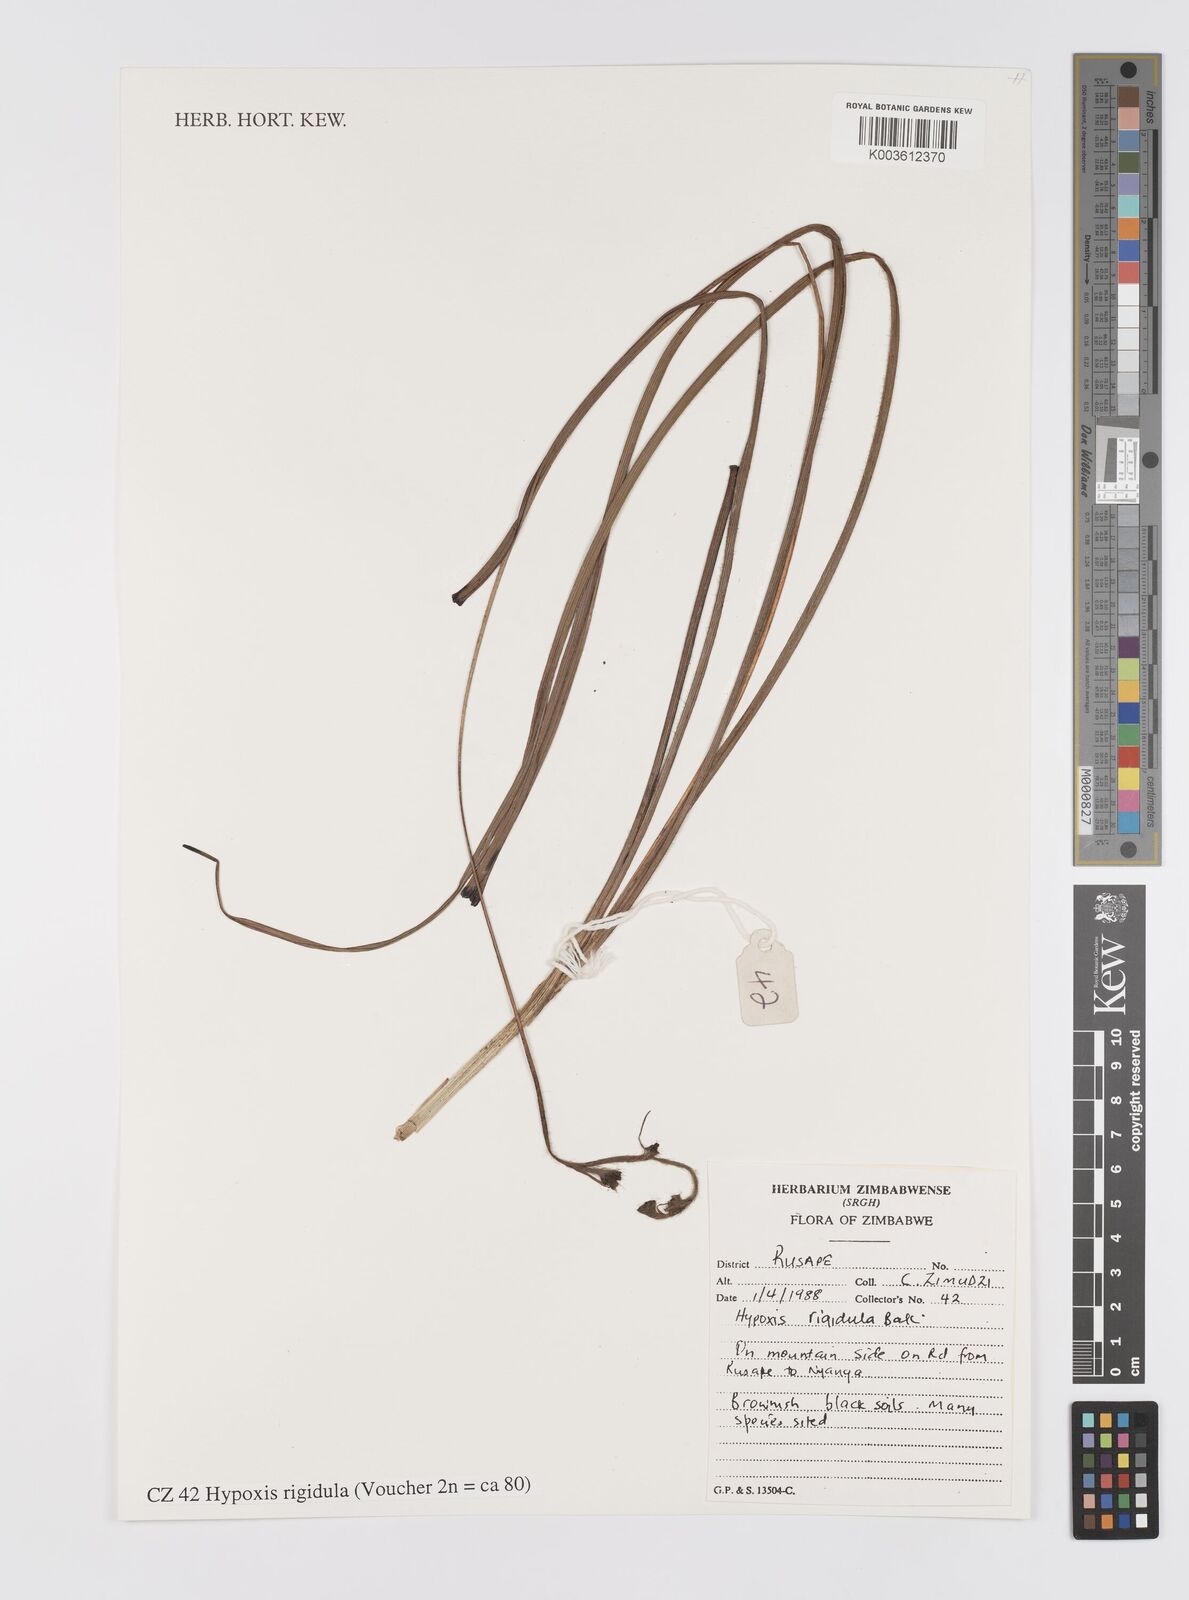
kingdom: Plantae
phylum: Tracheophyta
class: Liliopsida
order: Asparagales
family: Hypoxidaceae
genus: Hypoxis
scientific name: Hypoxis rigidula
